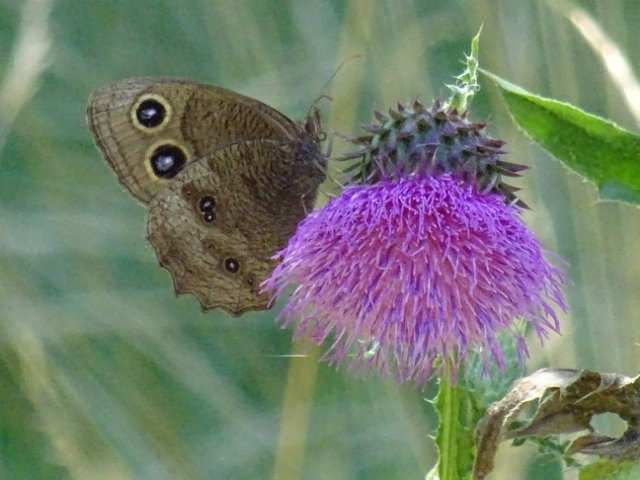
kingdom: Animalia
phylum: Arthropoda
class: Insecta
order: Lepidoptera
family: Nymphalidae
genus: Cercyonis
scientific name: Cercyonis pegala
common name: Common Wood-Nymph
